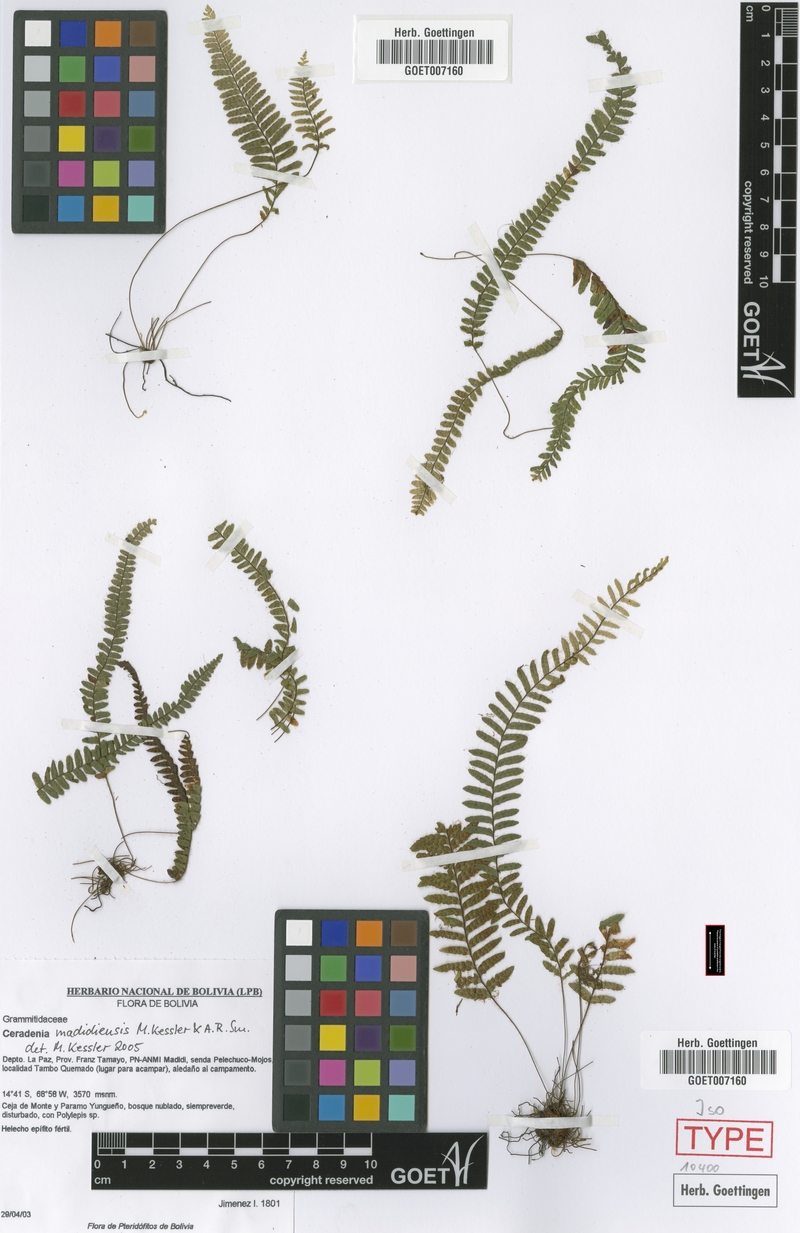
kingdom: Plantae
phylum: Tracheophyta
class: Polypodiopsida
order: Polypodiales
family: Polypodiaceae
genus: Ceradenia
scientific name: Ceradenia madidiensis
